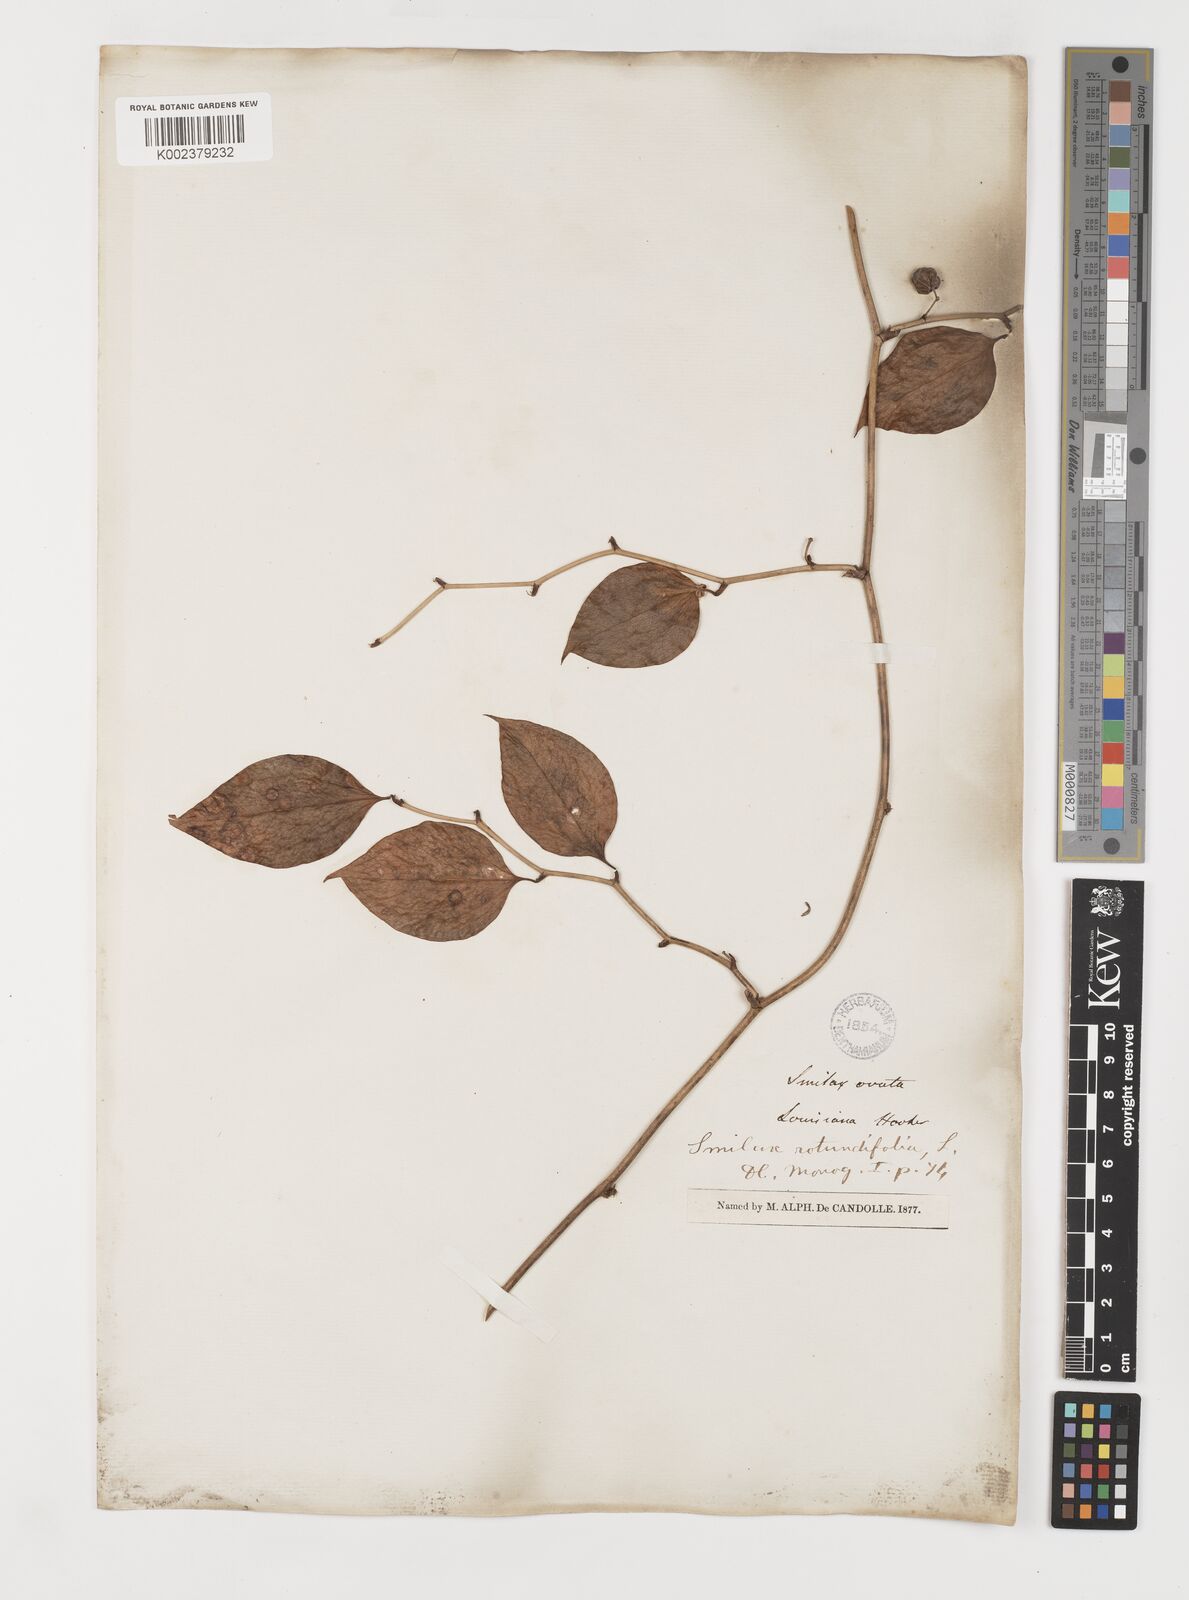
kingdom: Plantae
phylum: Tracheophyta
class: Liliopsida
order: Liliales
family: Smilacaceae
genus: Smilax
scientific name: Smilax rotundifolia
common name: Bullbriar
